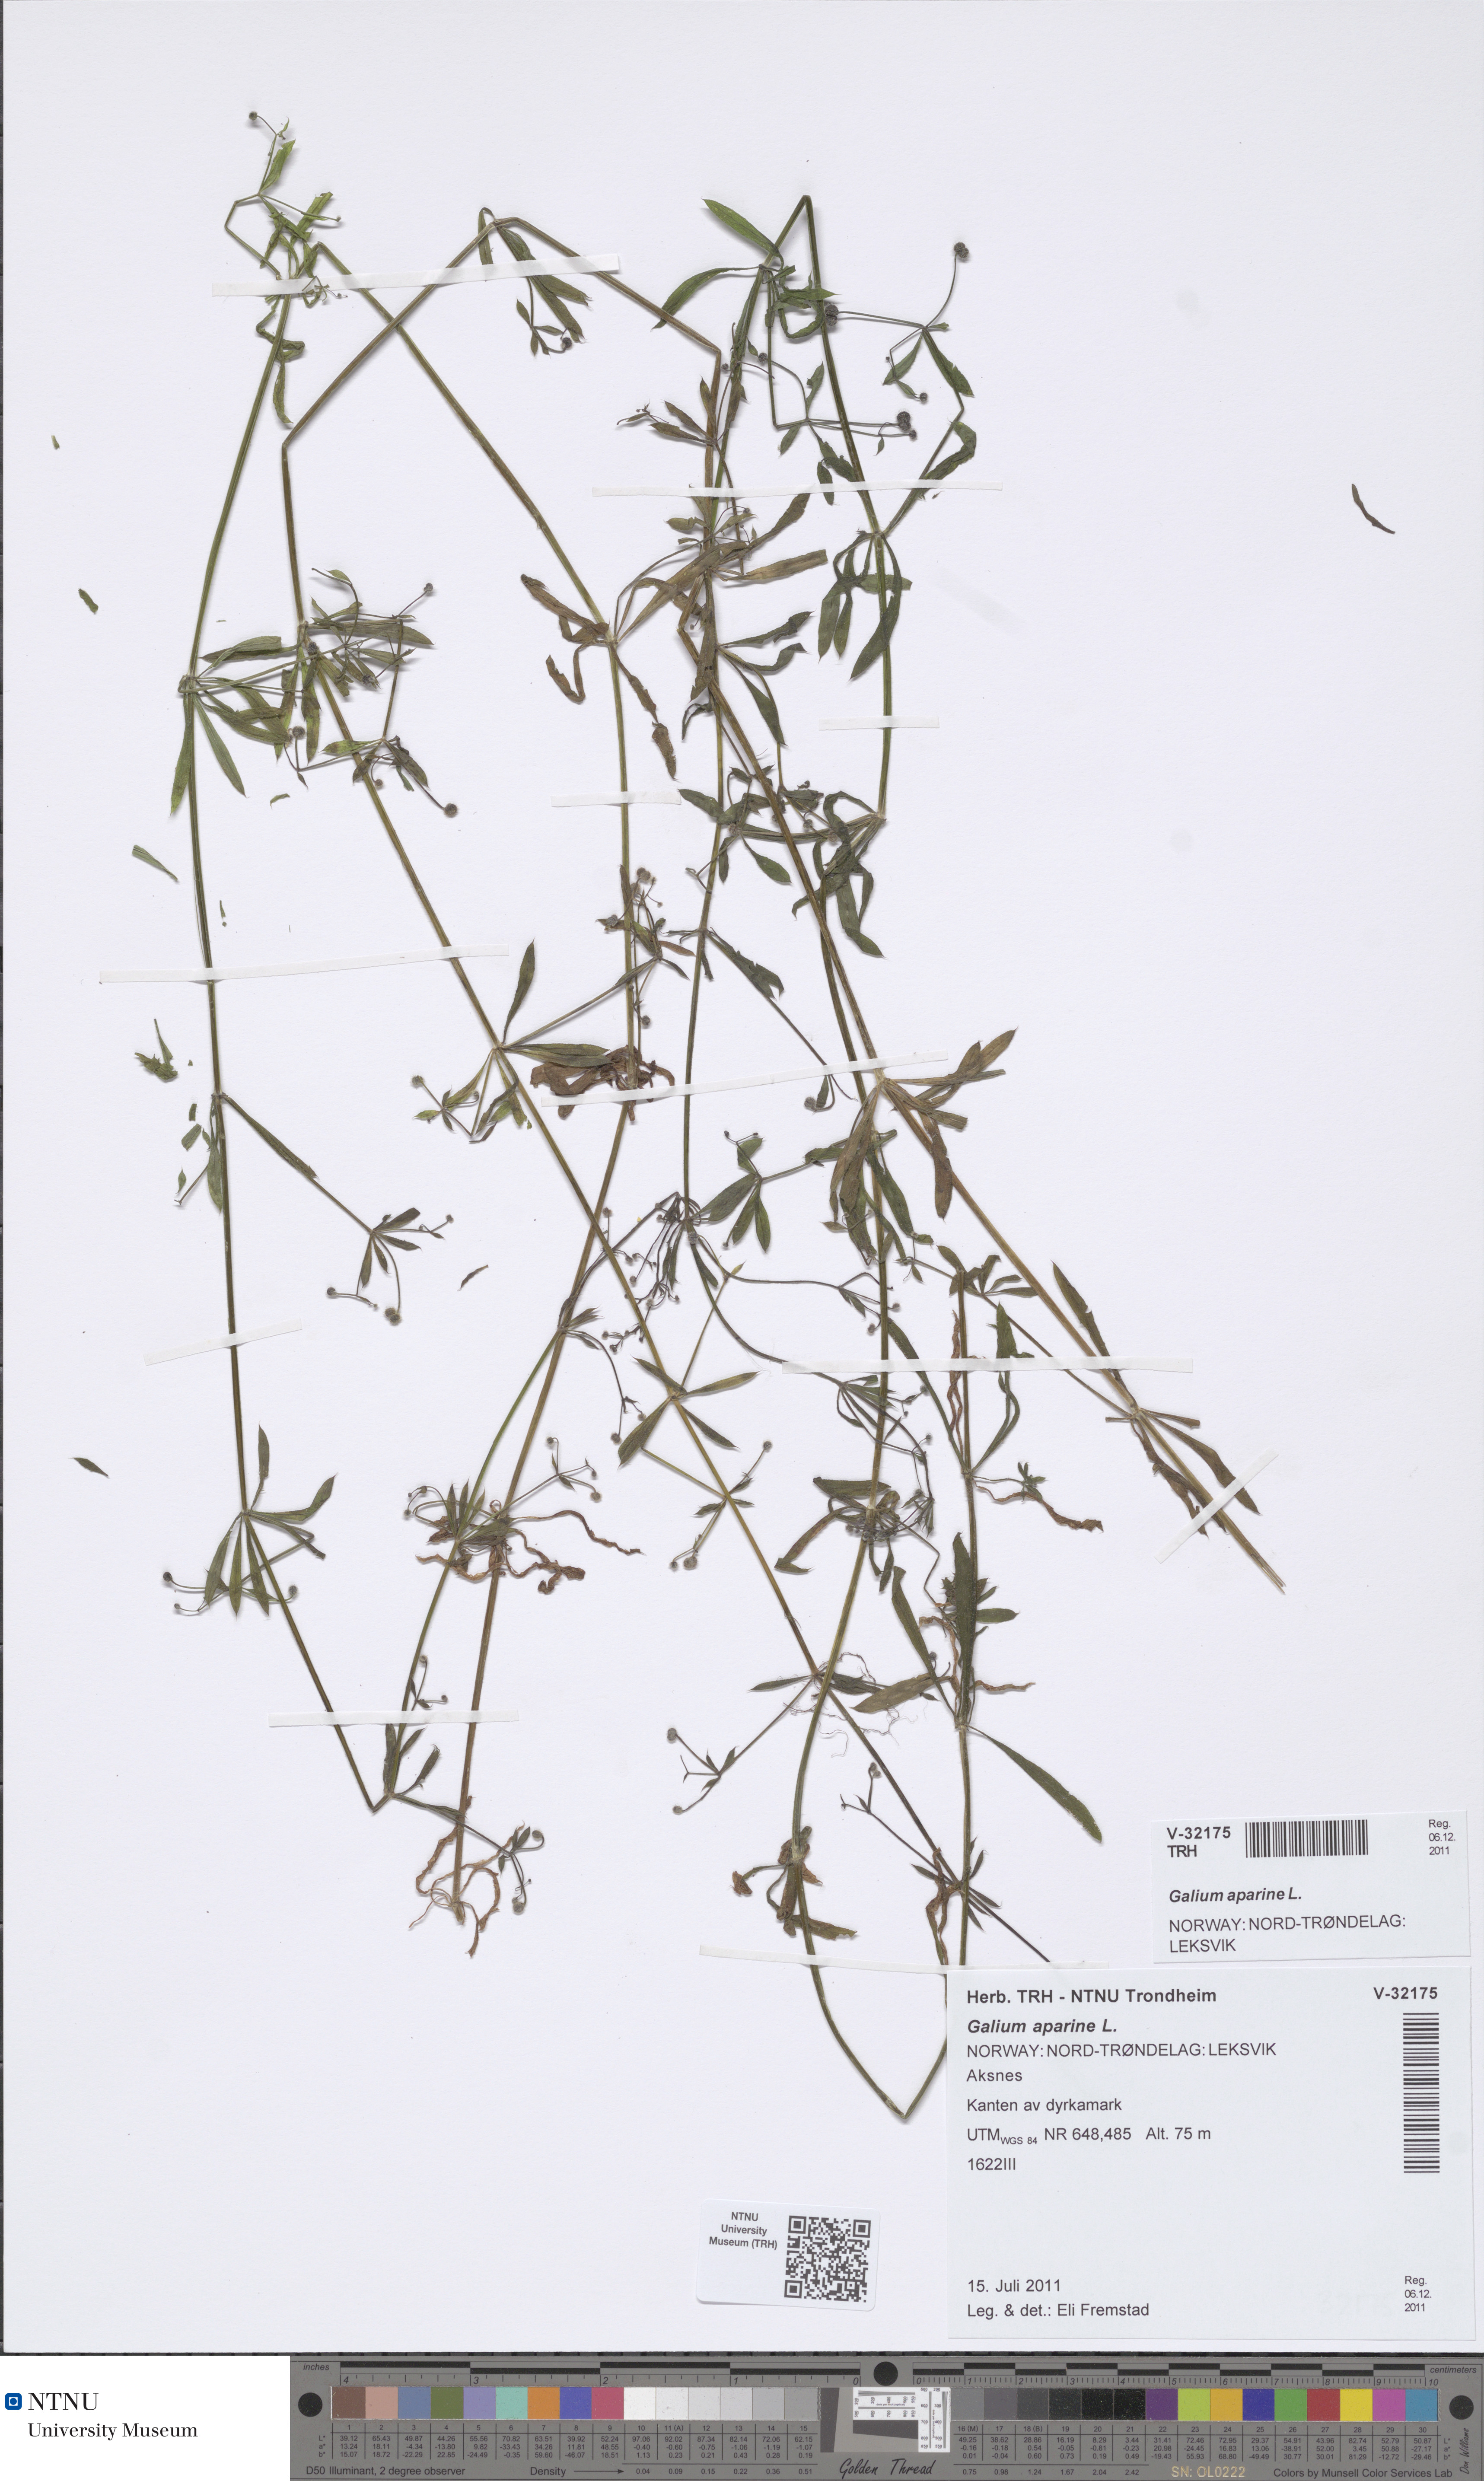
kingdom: Plantae
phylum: Tracheophyta
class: Magnoliopsida
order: Gentianales
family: Rubiaceae
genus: Galium
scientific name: Galium aparine
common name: Cleavers
